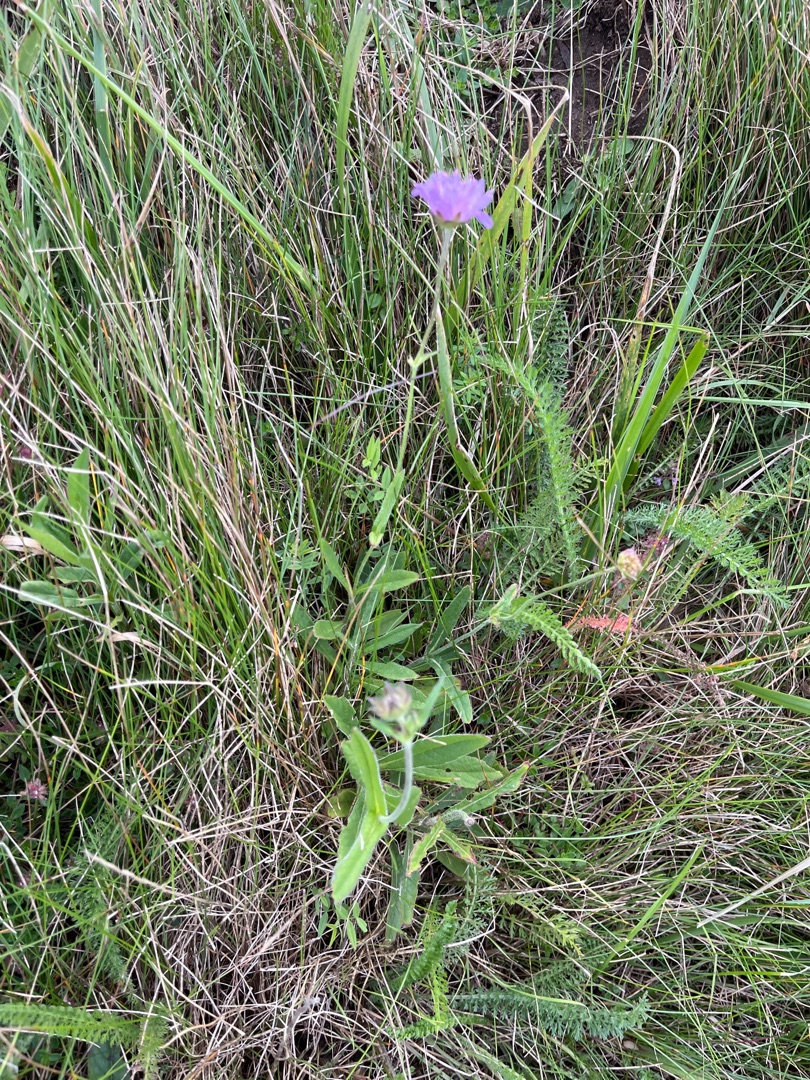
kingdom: Plantae
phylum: Tracheophyta
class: Magnoliopsida
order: Dipsacales
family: Caprifoliaceae
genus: Knautia
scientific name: Knautia arvensis
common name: Blåhat
